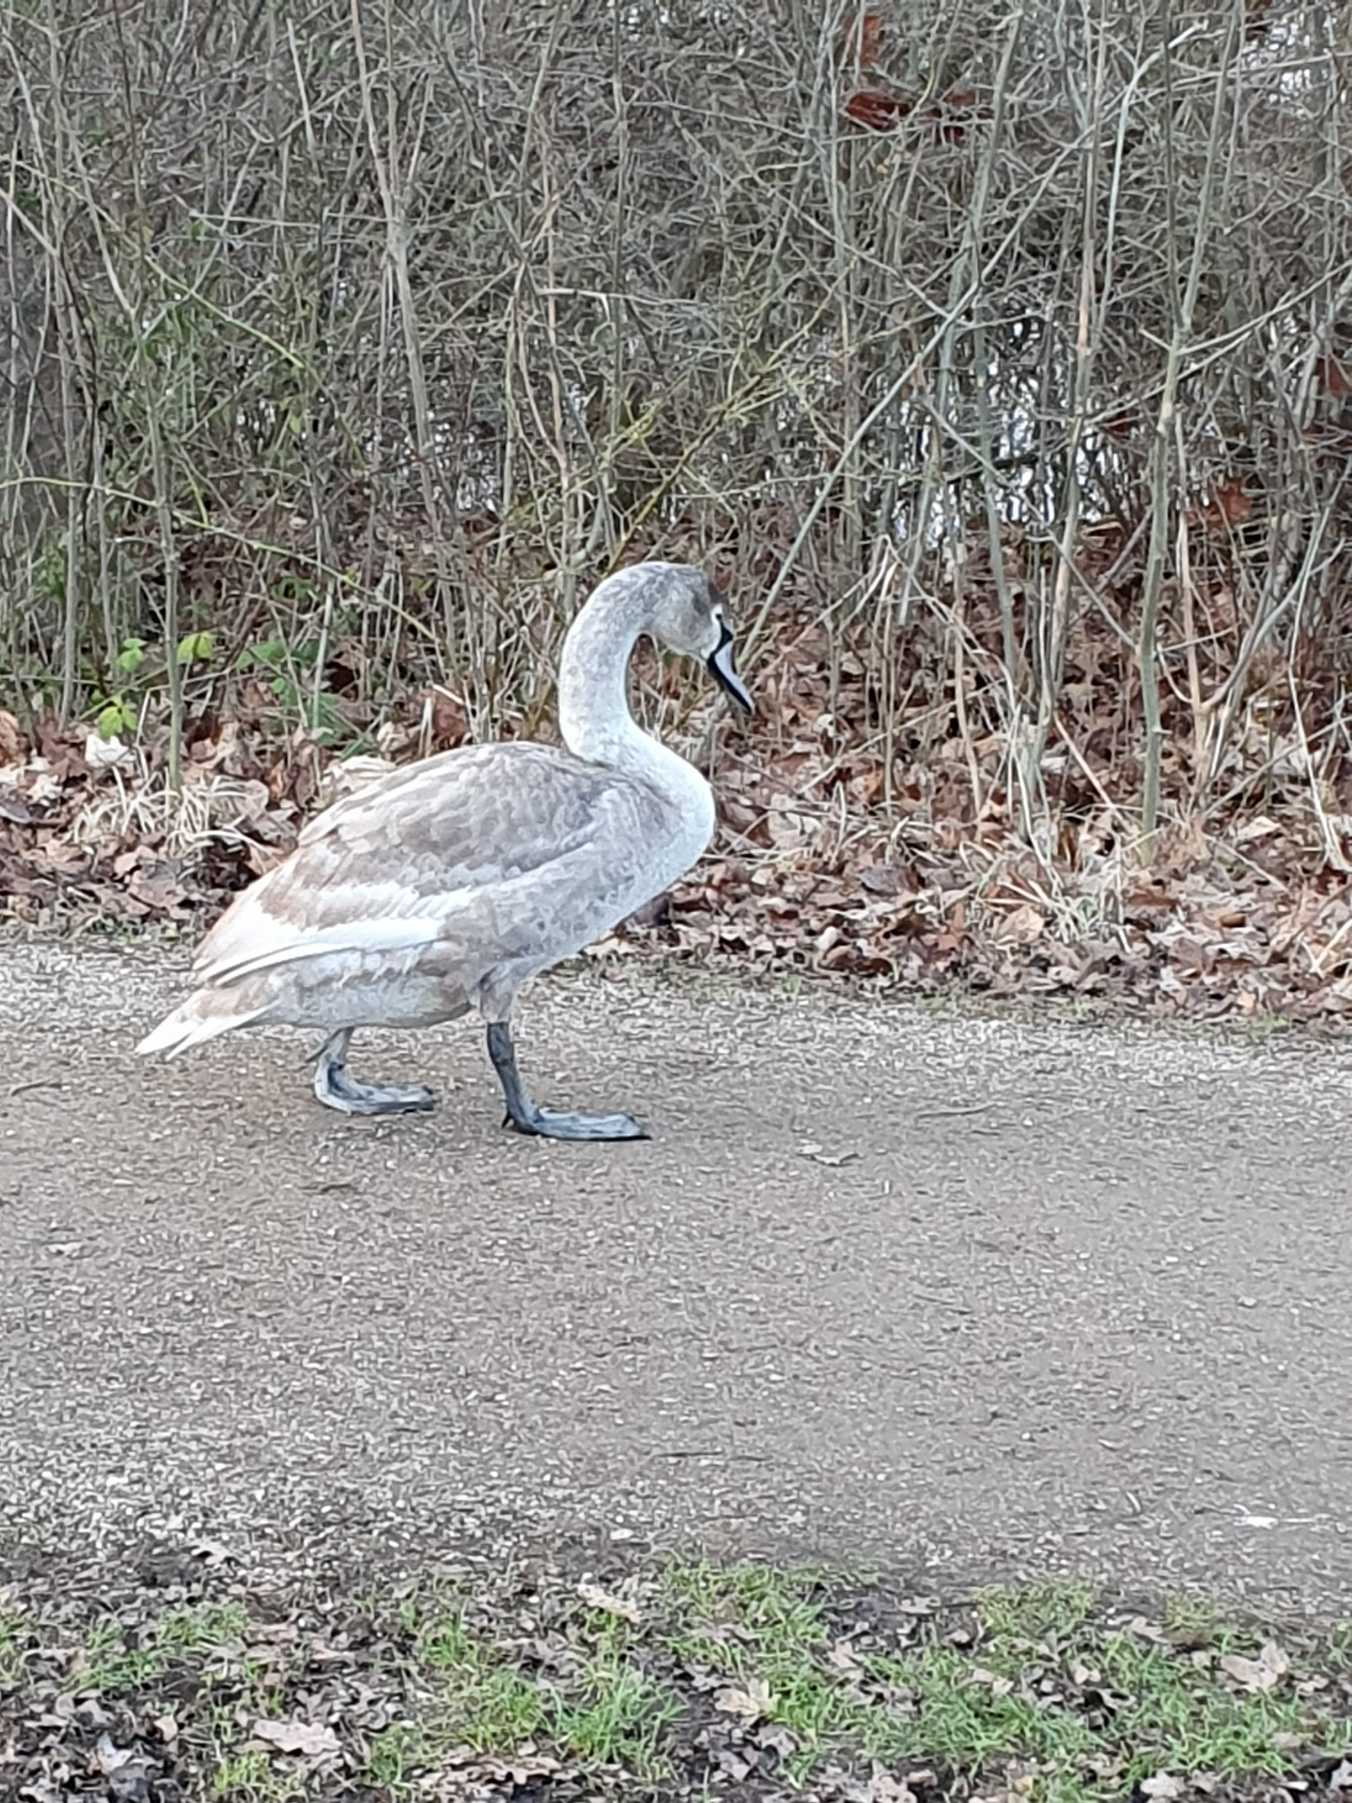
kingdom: Animalia
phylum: Chordata
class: Aves
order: Anseriformes
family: Anatidae
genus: Cygnus
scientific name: Cygnus olor
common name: Knopsvane
